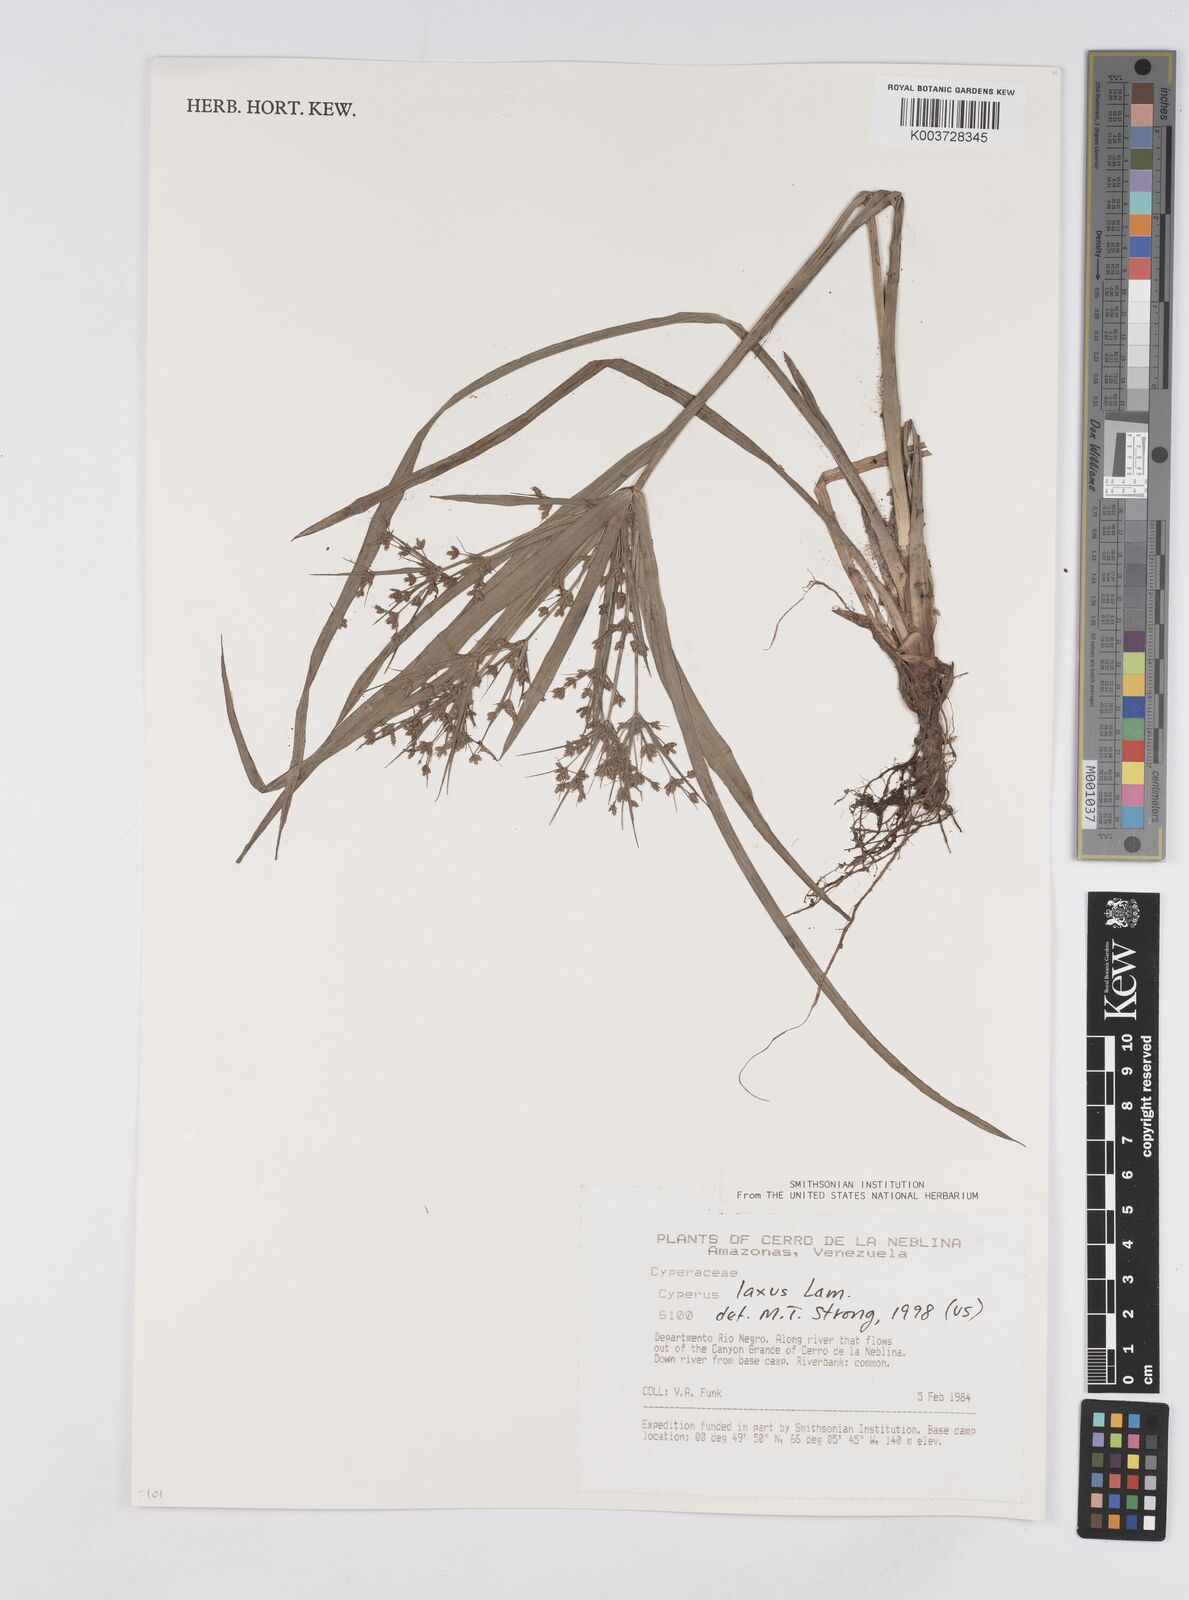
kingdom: Plantae
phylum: Tracheophyta
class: Liliopsida
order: Poales
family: Cyperaceae
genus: Cyperus
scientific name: Cyperus laxus
